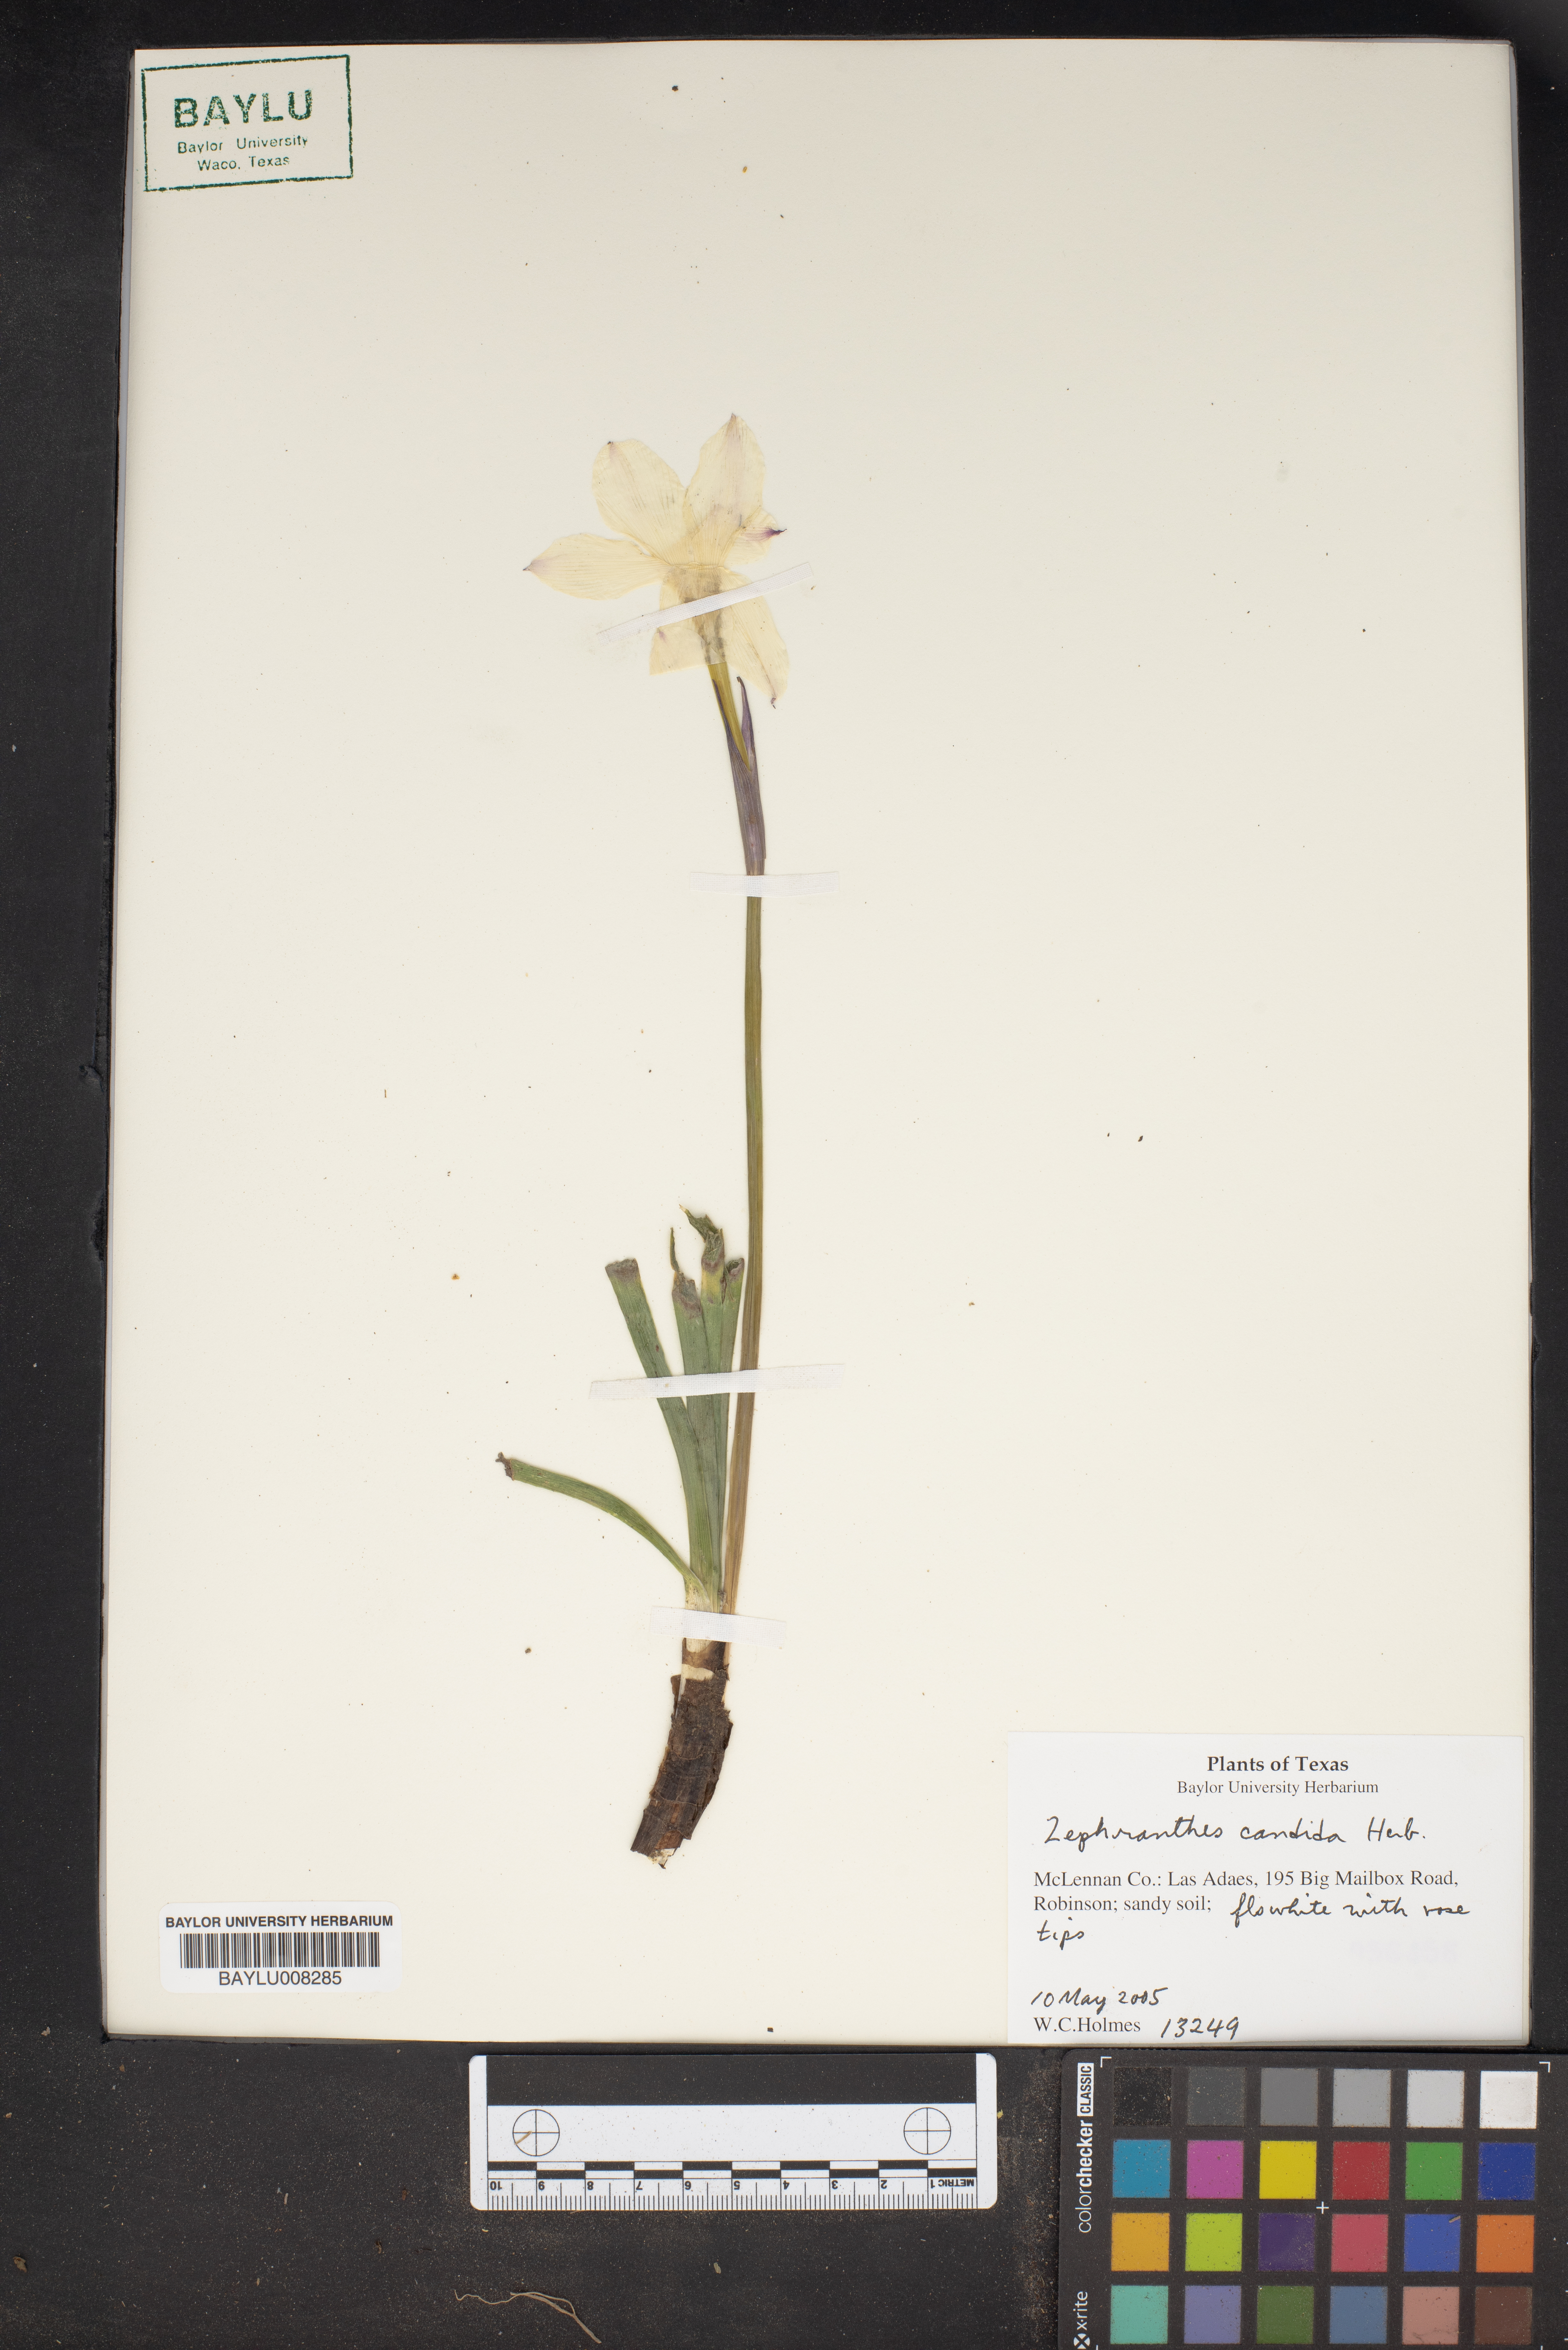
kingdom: Plantae
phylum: Tracheophyta
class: Liliopsida
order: Asparagales
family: Amaryllidaceae
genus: Zephyranthes
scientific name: Zephyranthes candida
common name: Autumn zephyrlily
